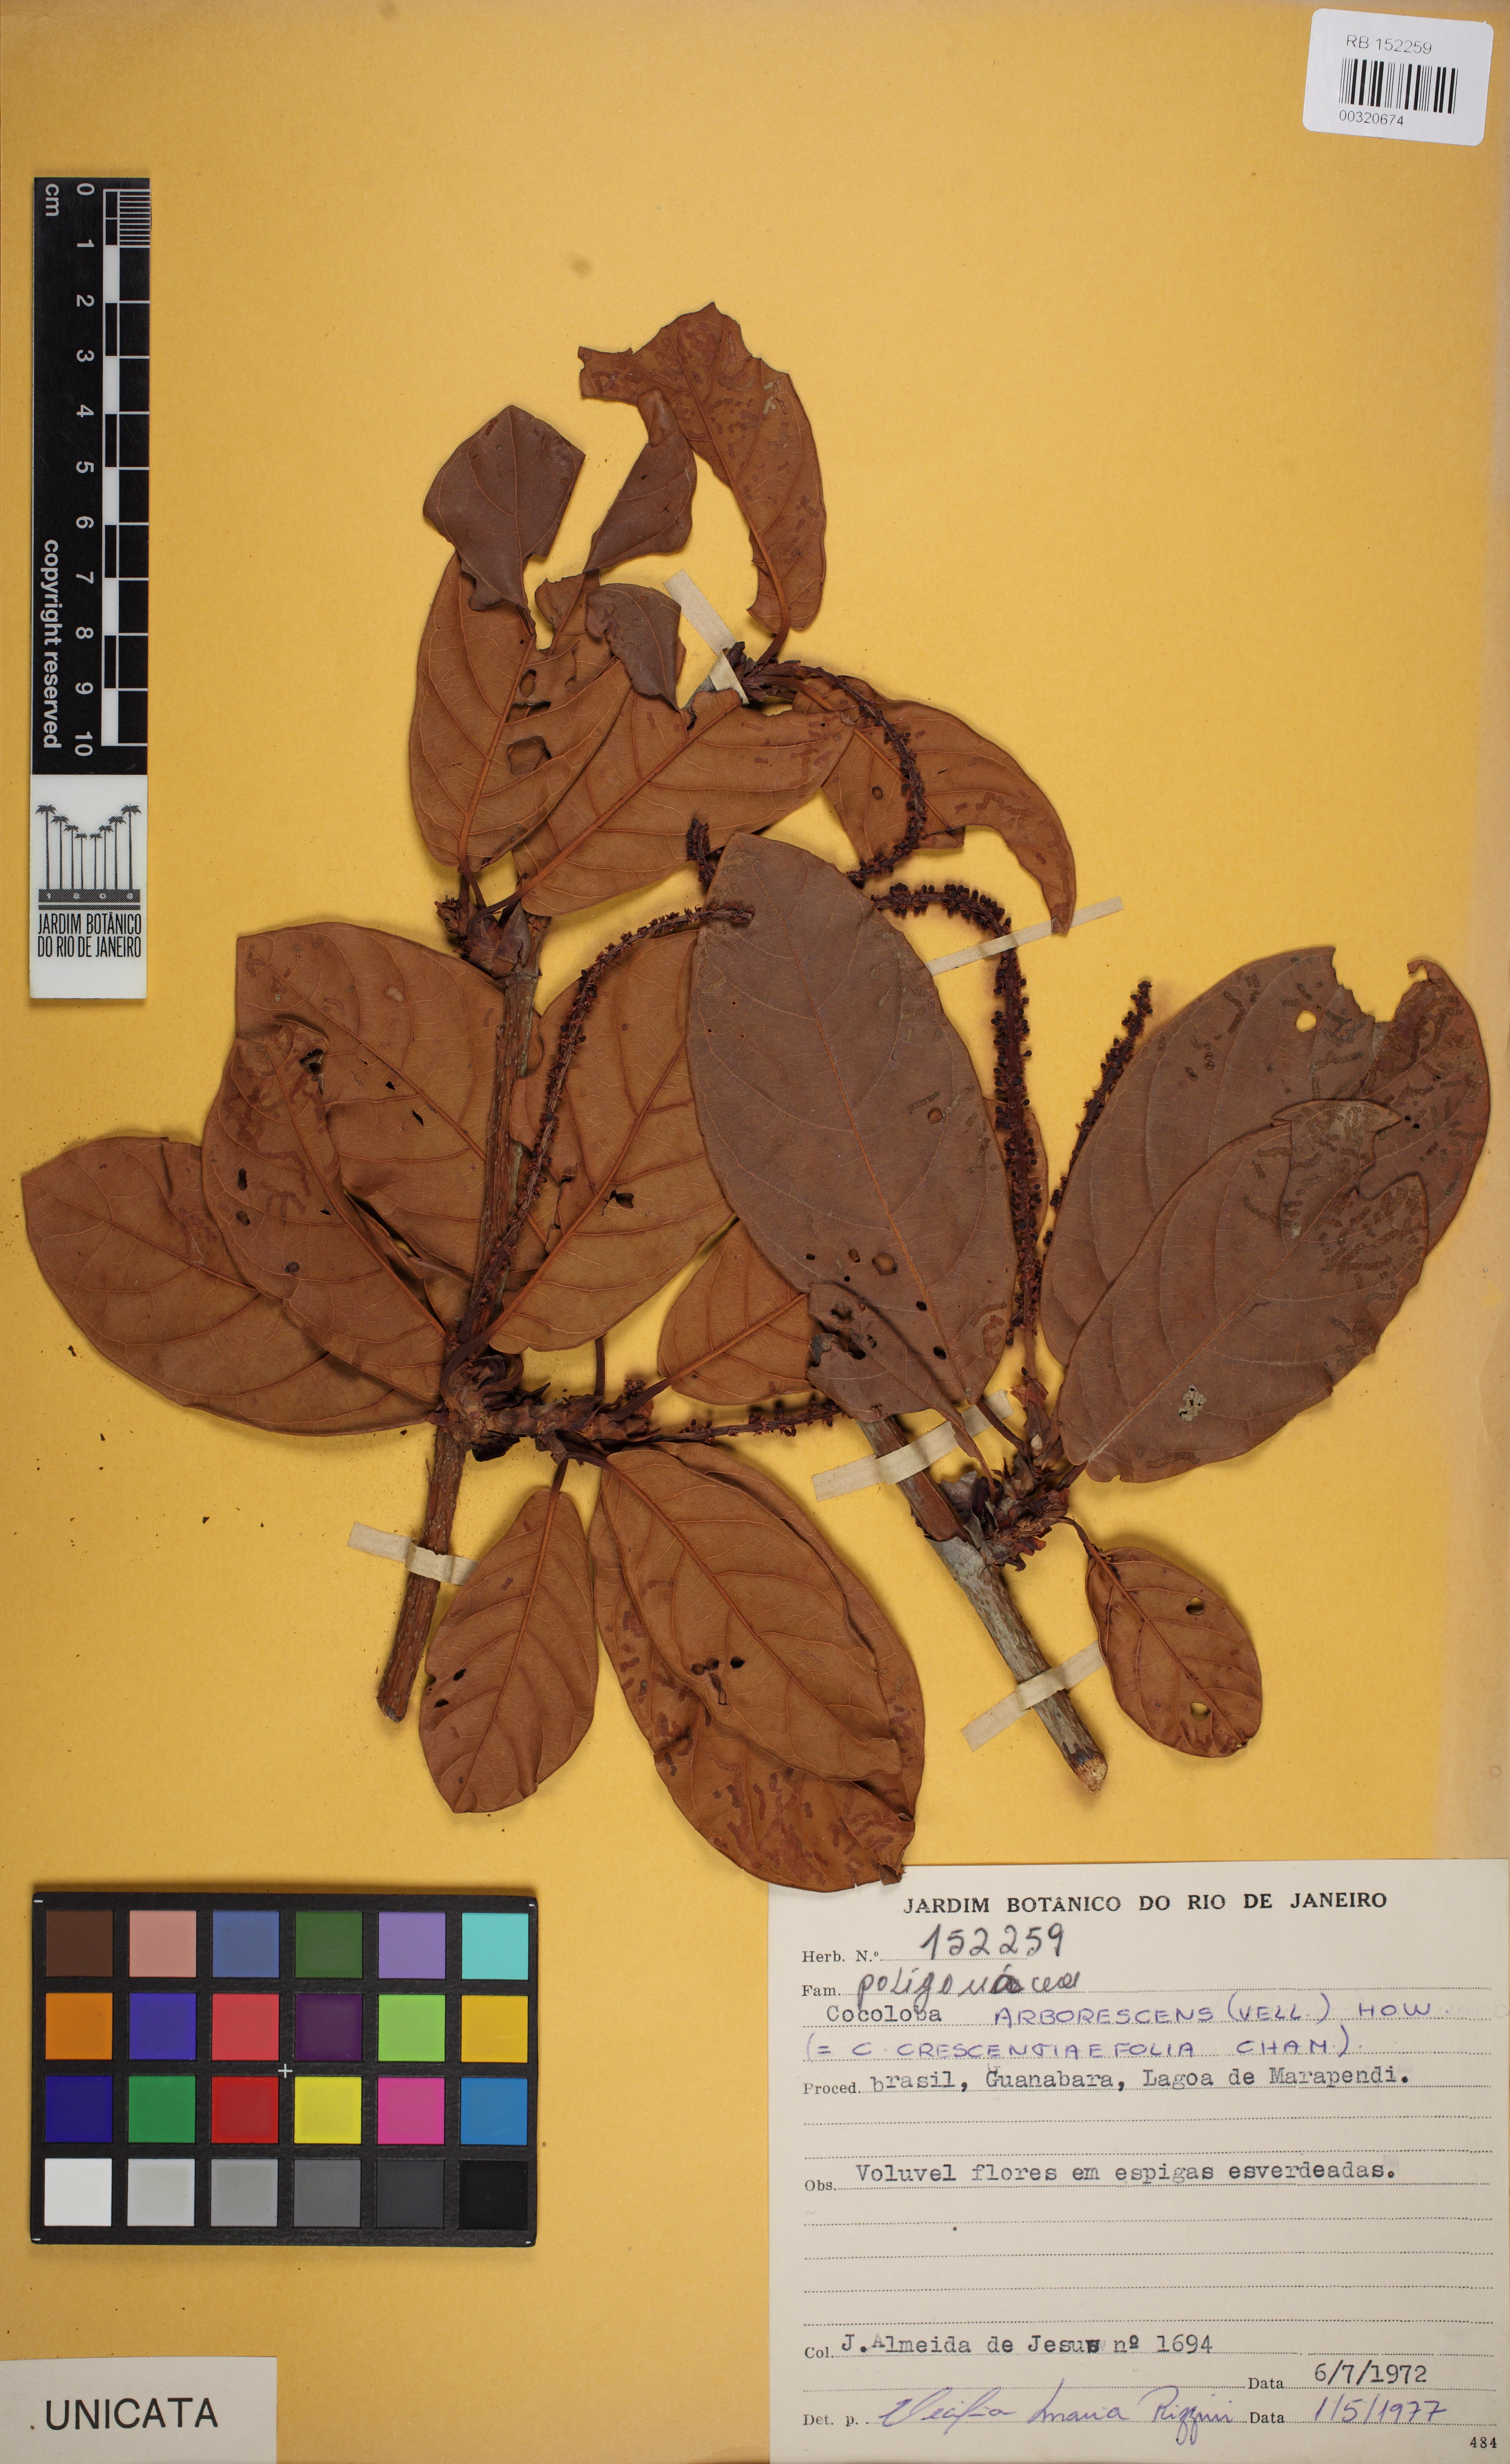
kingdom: Plantae
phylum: Tracheophyta
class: Magnoliopsida
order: Caryophyllales
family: Polygonaceae
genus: Coccoloba
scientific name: Coccoloba arborescens
